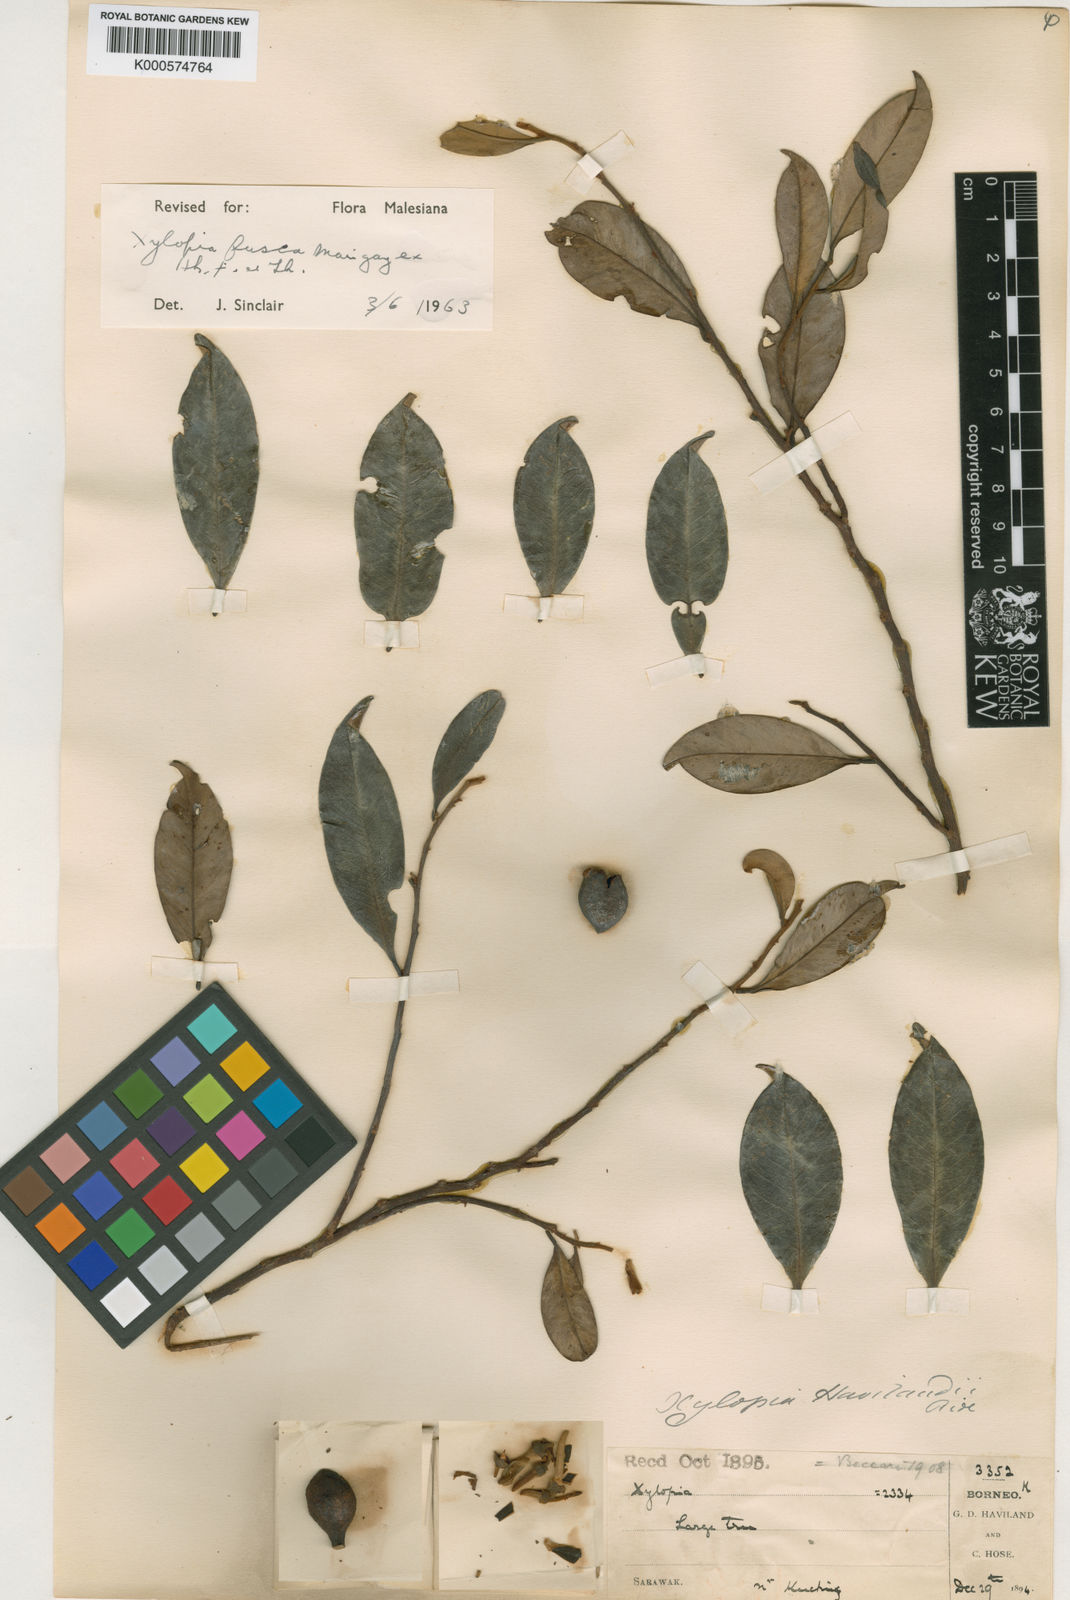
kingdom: Plantae
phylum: Tracheophyta
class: Magnoliopsida
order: Magnoliales
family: Annonaceae
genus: Xylopia
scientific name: Xylopia fusca
